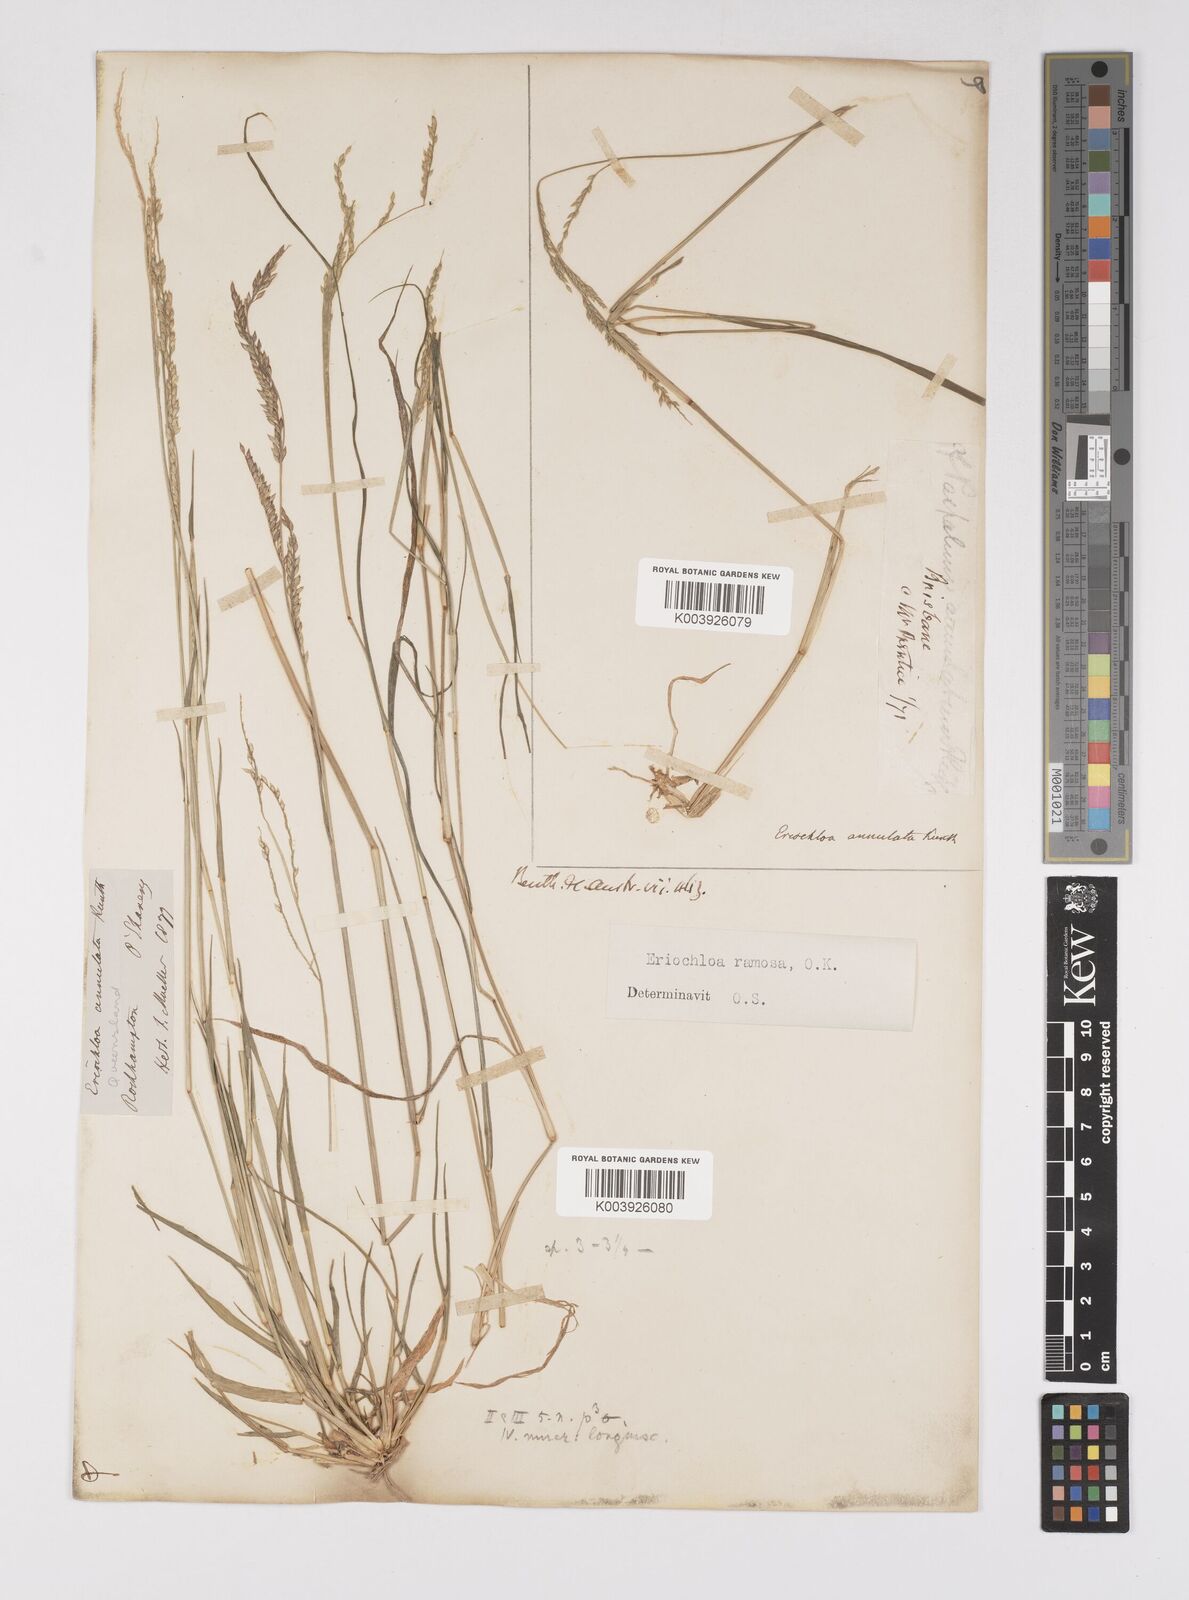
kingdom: Plantae
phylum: Tracheophyta
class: Liliopsida
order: Poales
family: Poaceae
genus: Eriochloa
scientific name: Eriochloa
